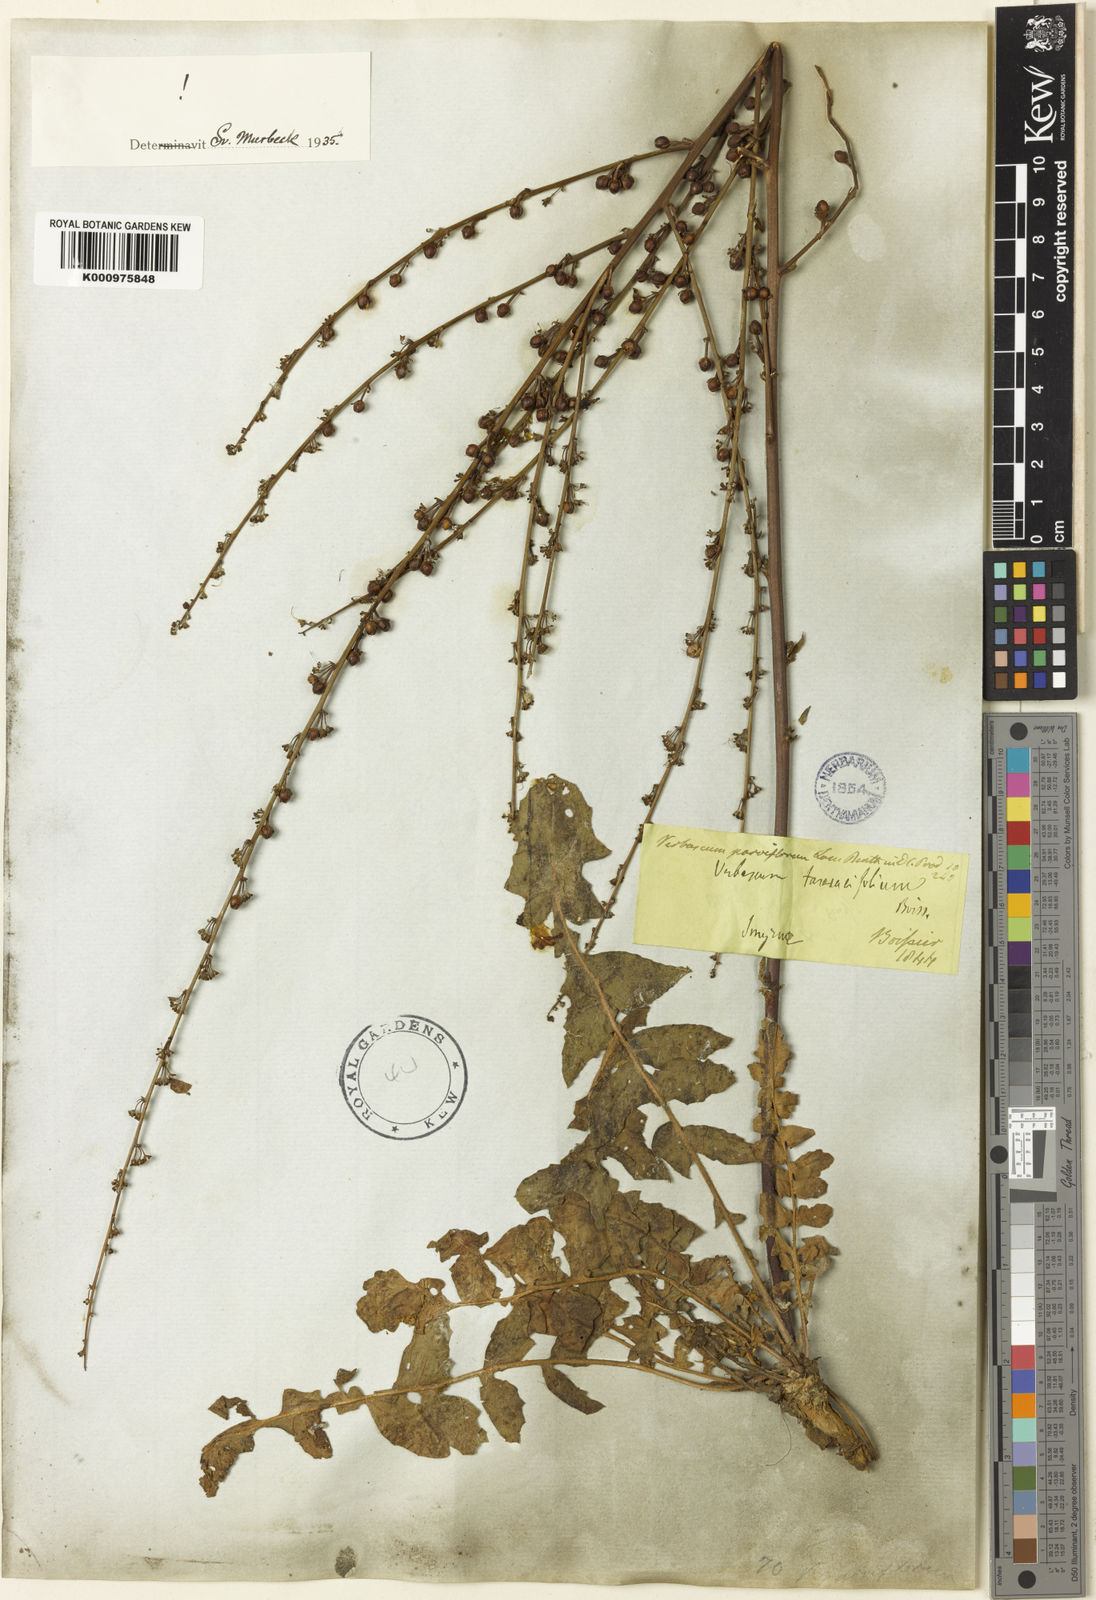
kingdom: Plantae
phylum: Tracheophyta
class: Magnoliopsida
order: Lamiales
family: Scrophulariaceae
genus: Verbascum
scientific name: Verbascum parviflorum
